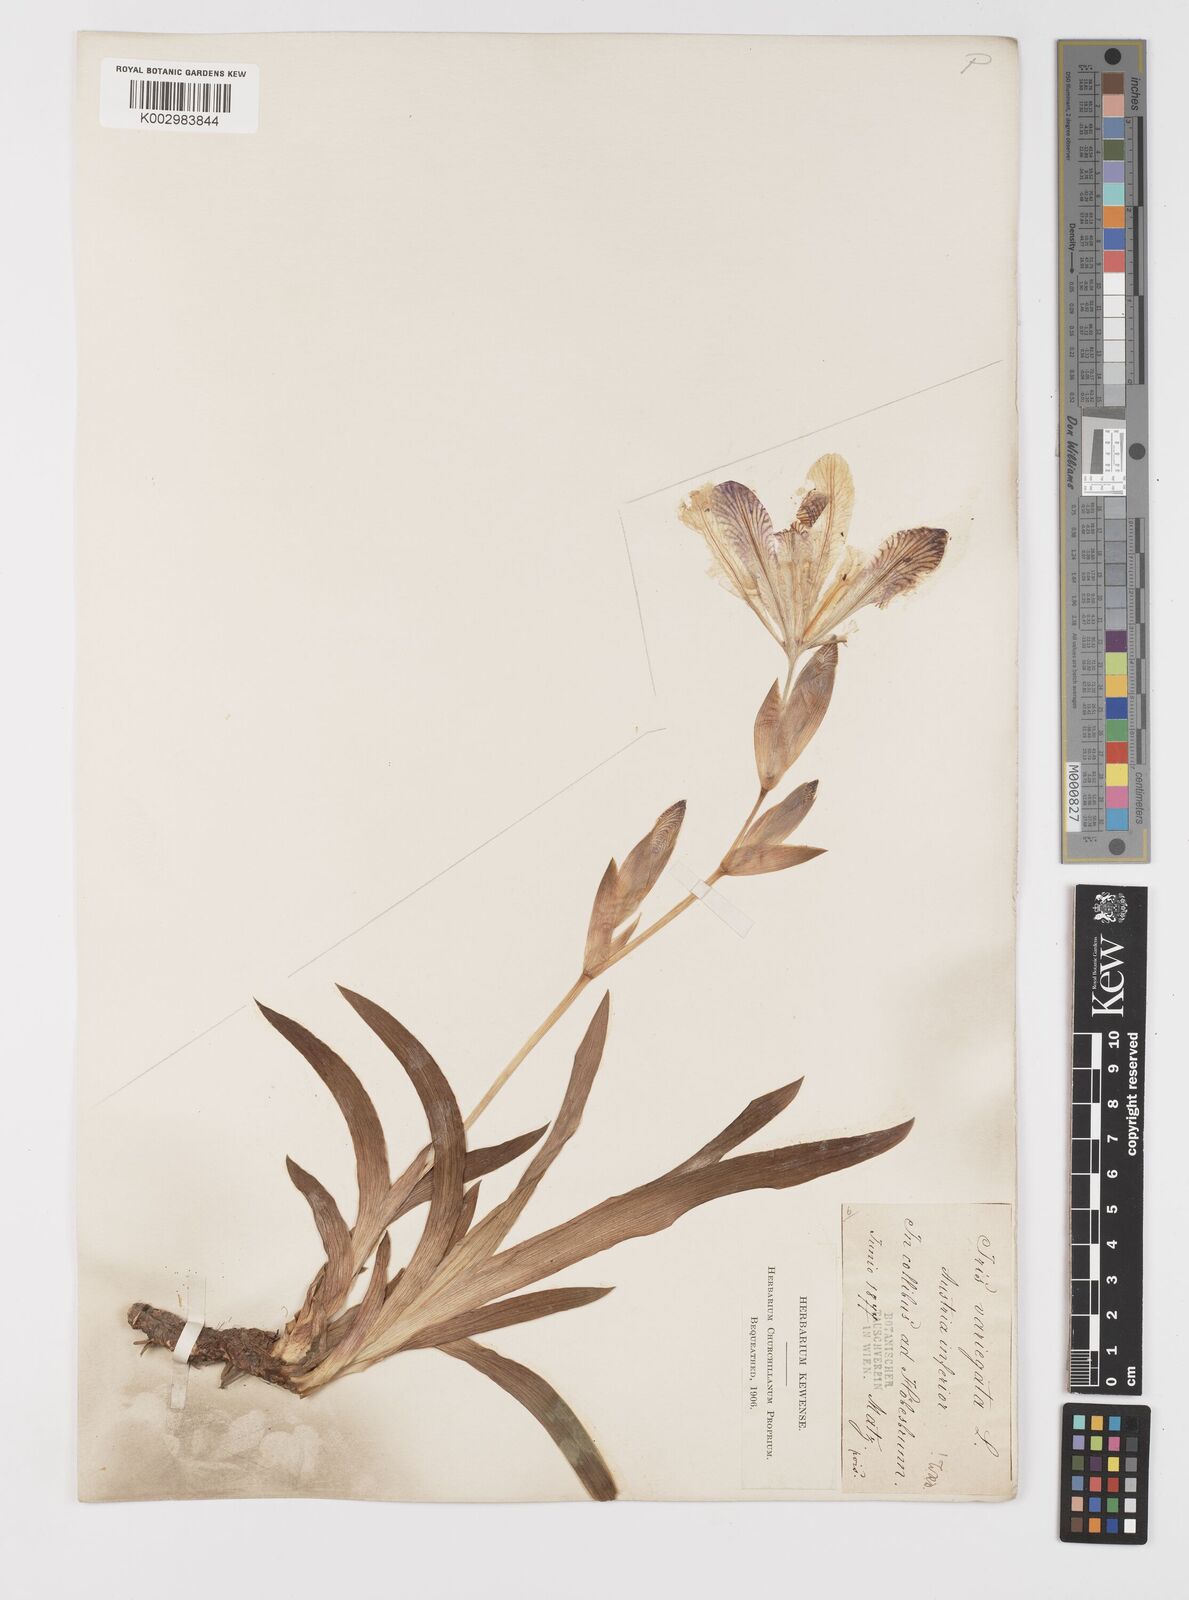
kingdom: Plantae
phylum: Tracheophyta
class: Liliopsida
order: Asparagales
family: Iridaceae
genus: Iris
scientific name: Iris variegata
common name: Hungarian iris
